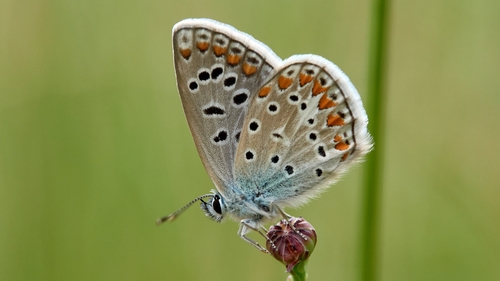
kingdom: Animalia
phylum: Arthropoda
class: Insecta
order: Lepidoptera
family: Lycaenidae
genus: Polyommatus
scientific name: Polyommatus icarus
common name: Common blue
